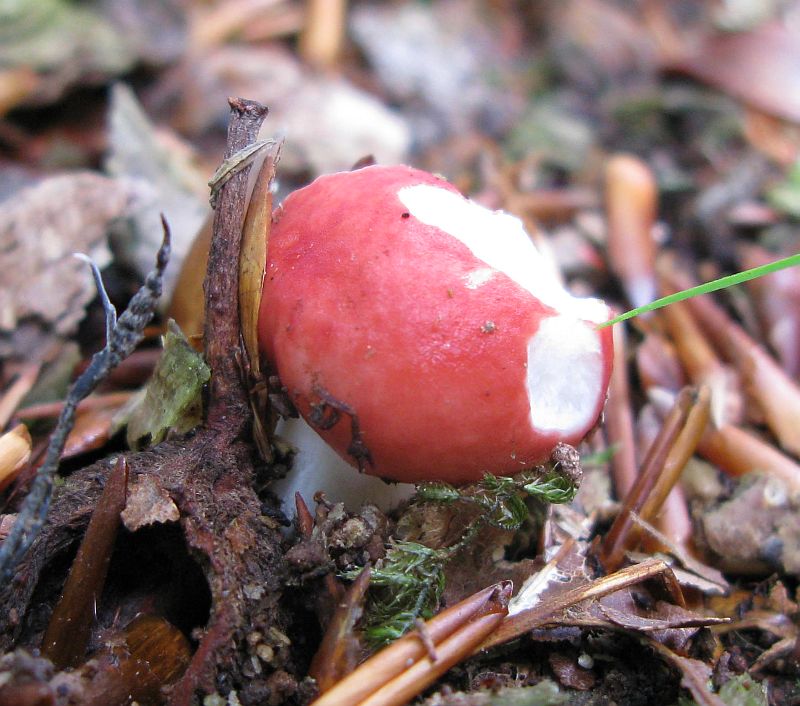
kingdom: Fungi
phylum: Basidiomycota
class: Agaricomycetes
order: Russulales
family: Russulaceae
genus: Russula
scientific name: Russula nobilis
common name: lille gift-skørhat
